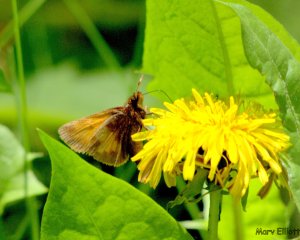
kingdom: Animalia
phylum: Arthropoda
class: Insecta
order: Lepidoptera
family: Hesperiidae
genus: Polites
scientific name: Polites coras
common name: Peck's Skipper
